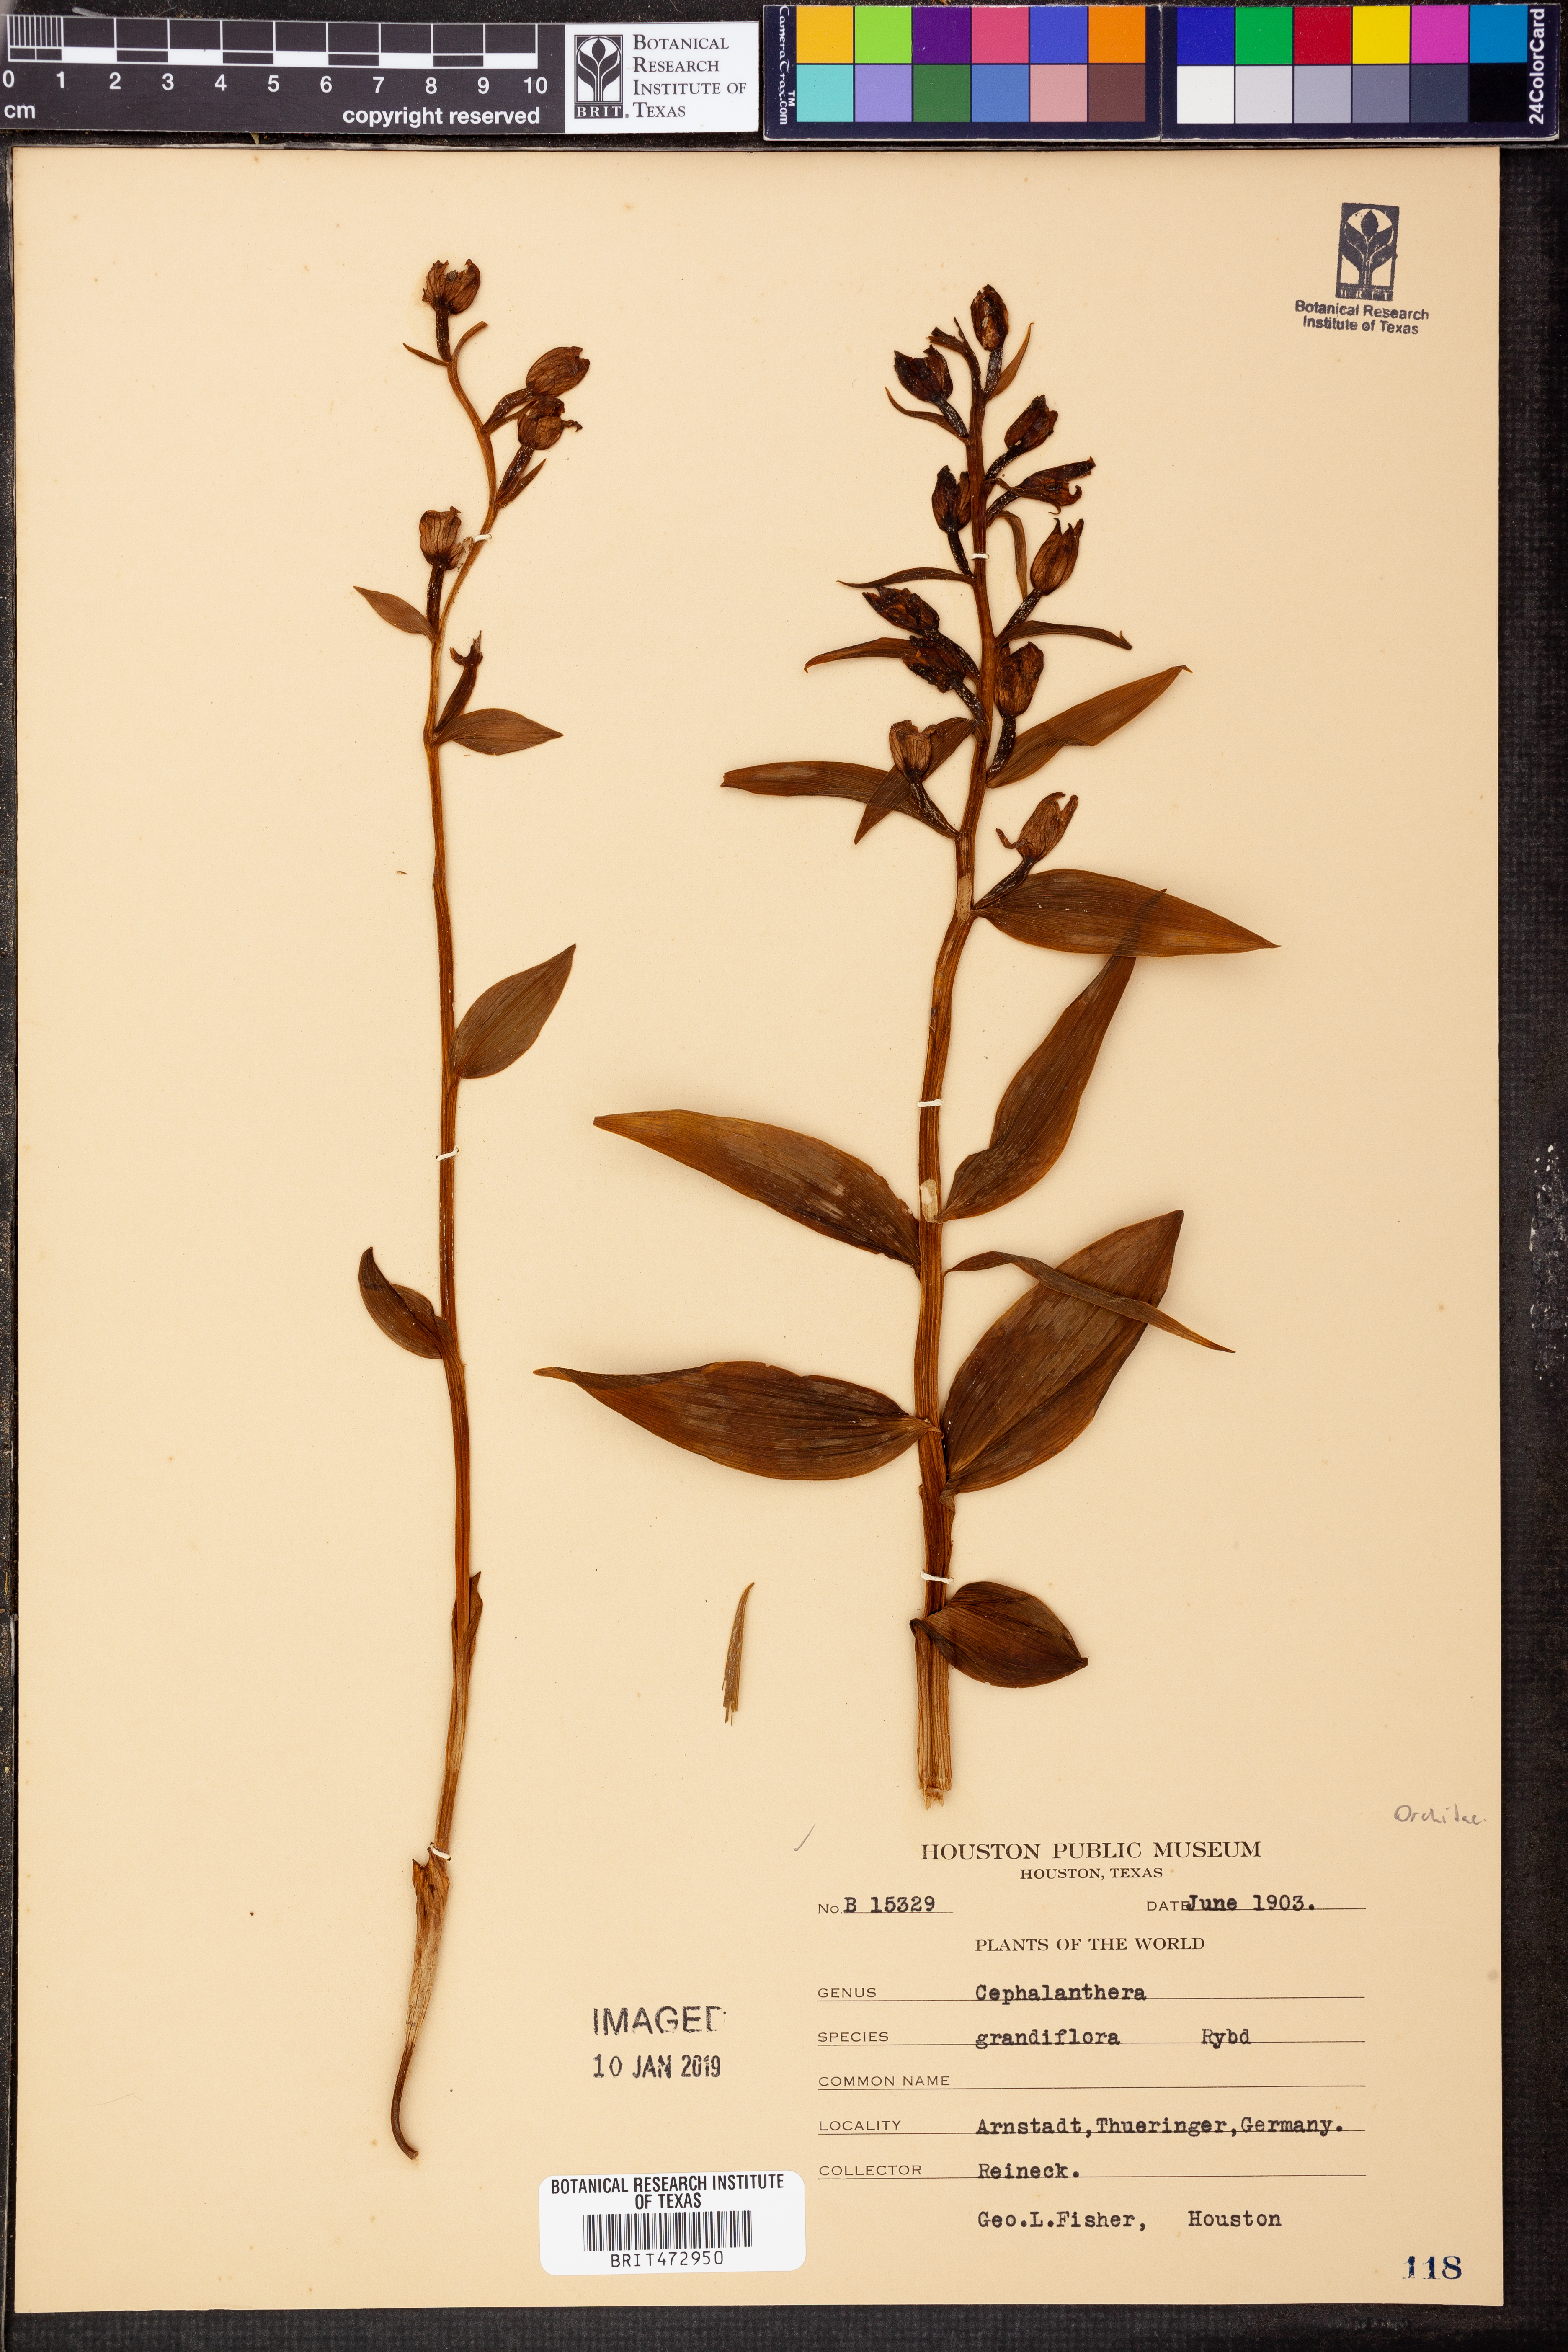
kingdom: Plantae
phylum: Tracheophyta
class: Liliopsida
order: Asparagales
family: Orchidaceae
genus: Cephalanthera
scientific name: Cephalanthera longifolia
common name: Narrow-leaved helleborine
